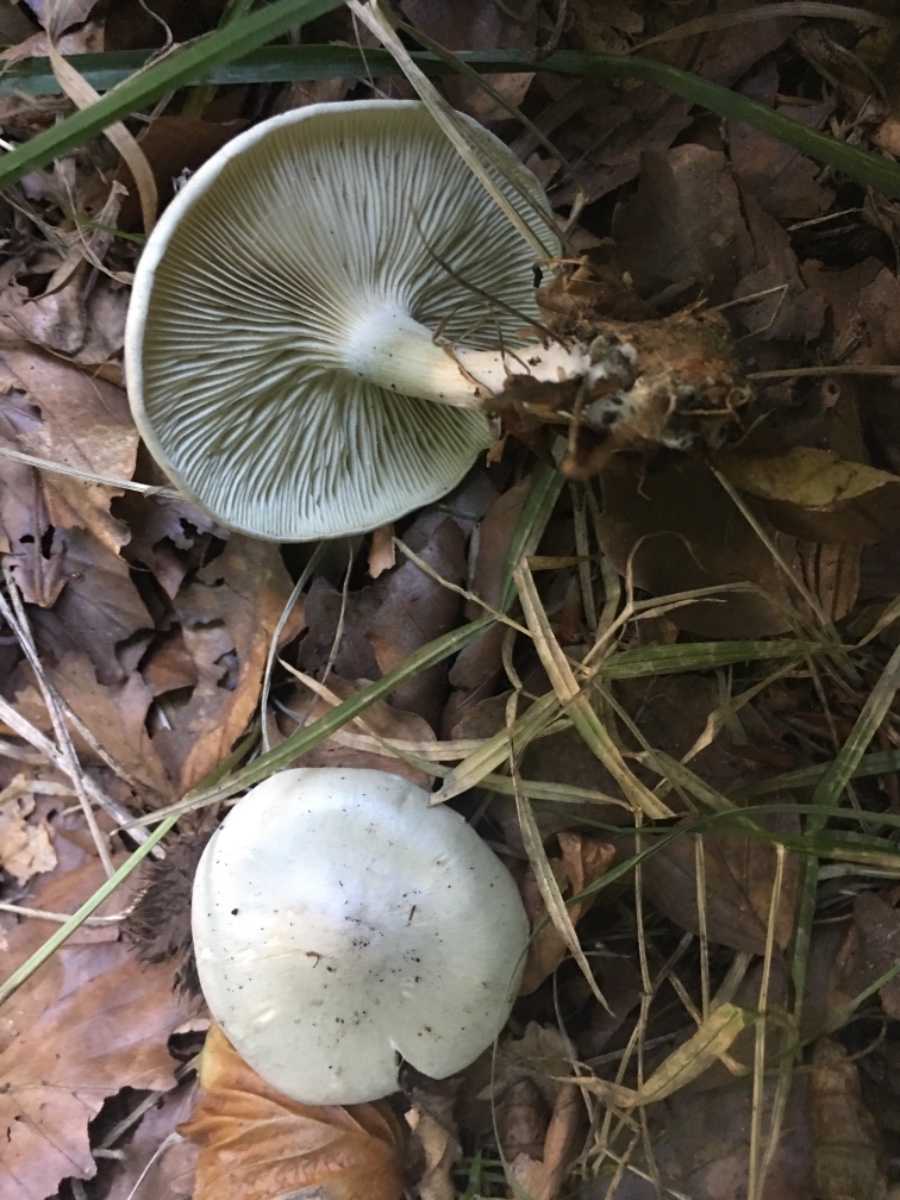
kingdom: Fungi
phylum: Basidiomycota
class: Agaricomycetes
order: Agaricales
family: Tricholomataceae
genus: Clitocybe
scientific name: Clitocybe odora
